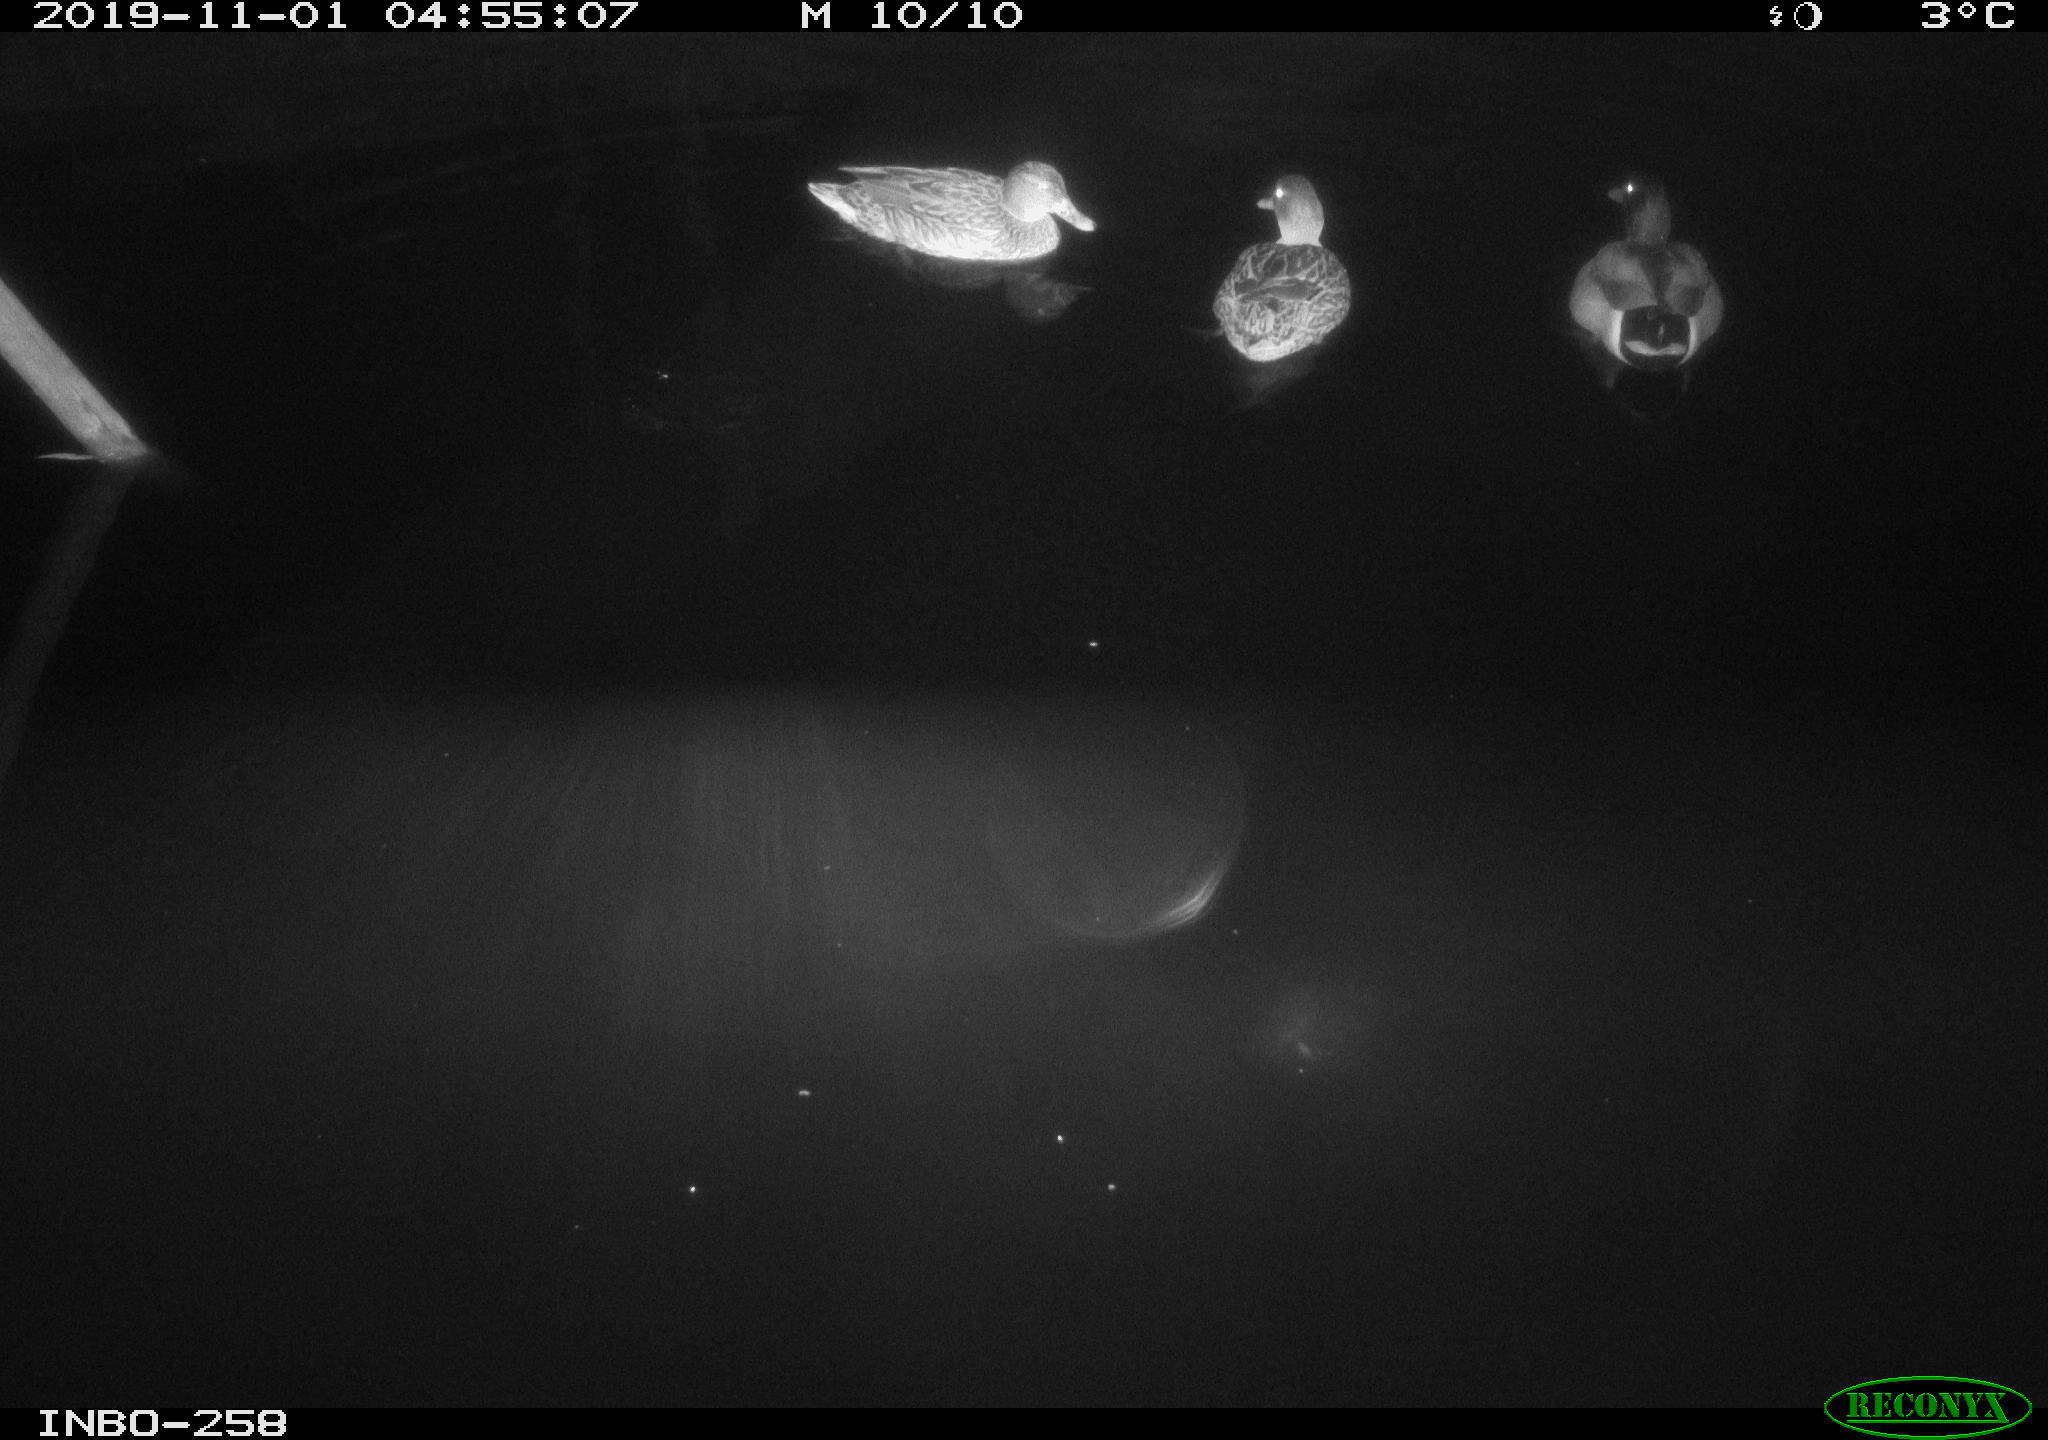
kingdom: Animalia
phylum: Chordata
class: Aves
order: Anseriformes
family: Anatidae
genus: Anas
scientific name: Anas platyrhynchos
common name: Mallard
